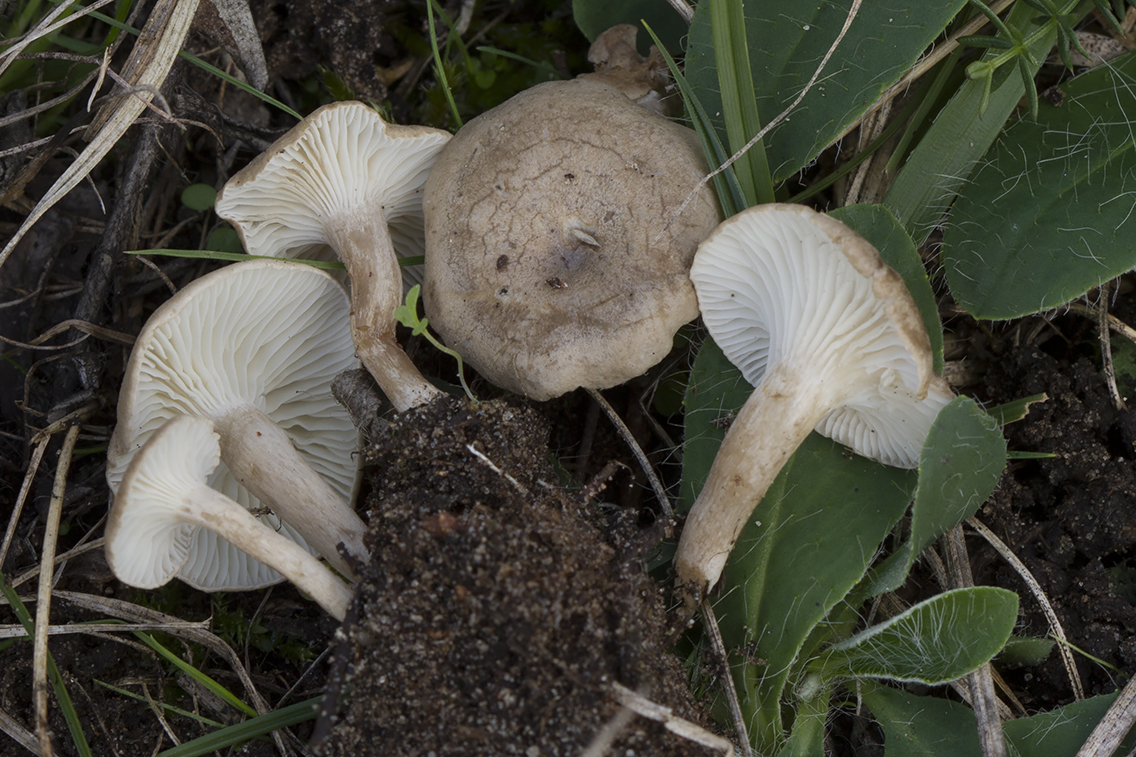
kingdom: Fungi
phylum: Basidiomycota
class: Agaricomycetes
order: Agaricales
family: Hygrophoraceae
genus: Spodocybe
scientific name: Spodocybe collina
